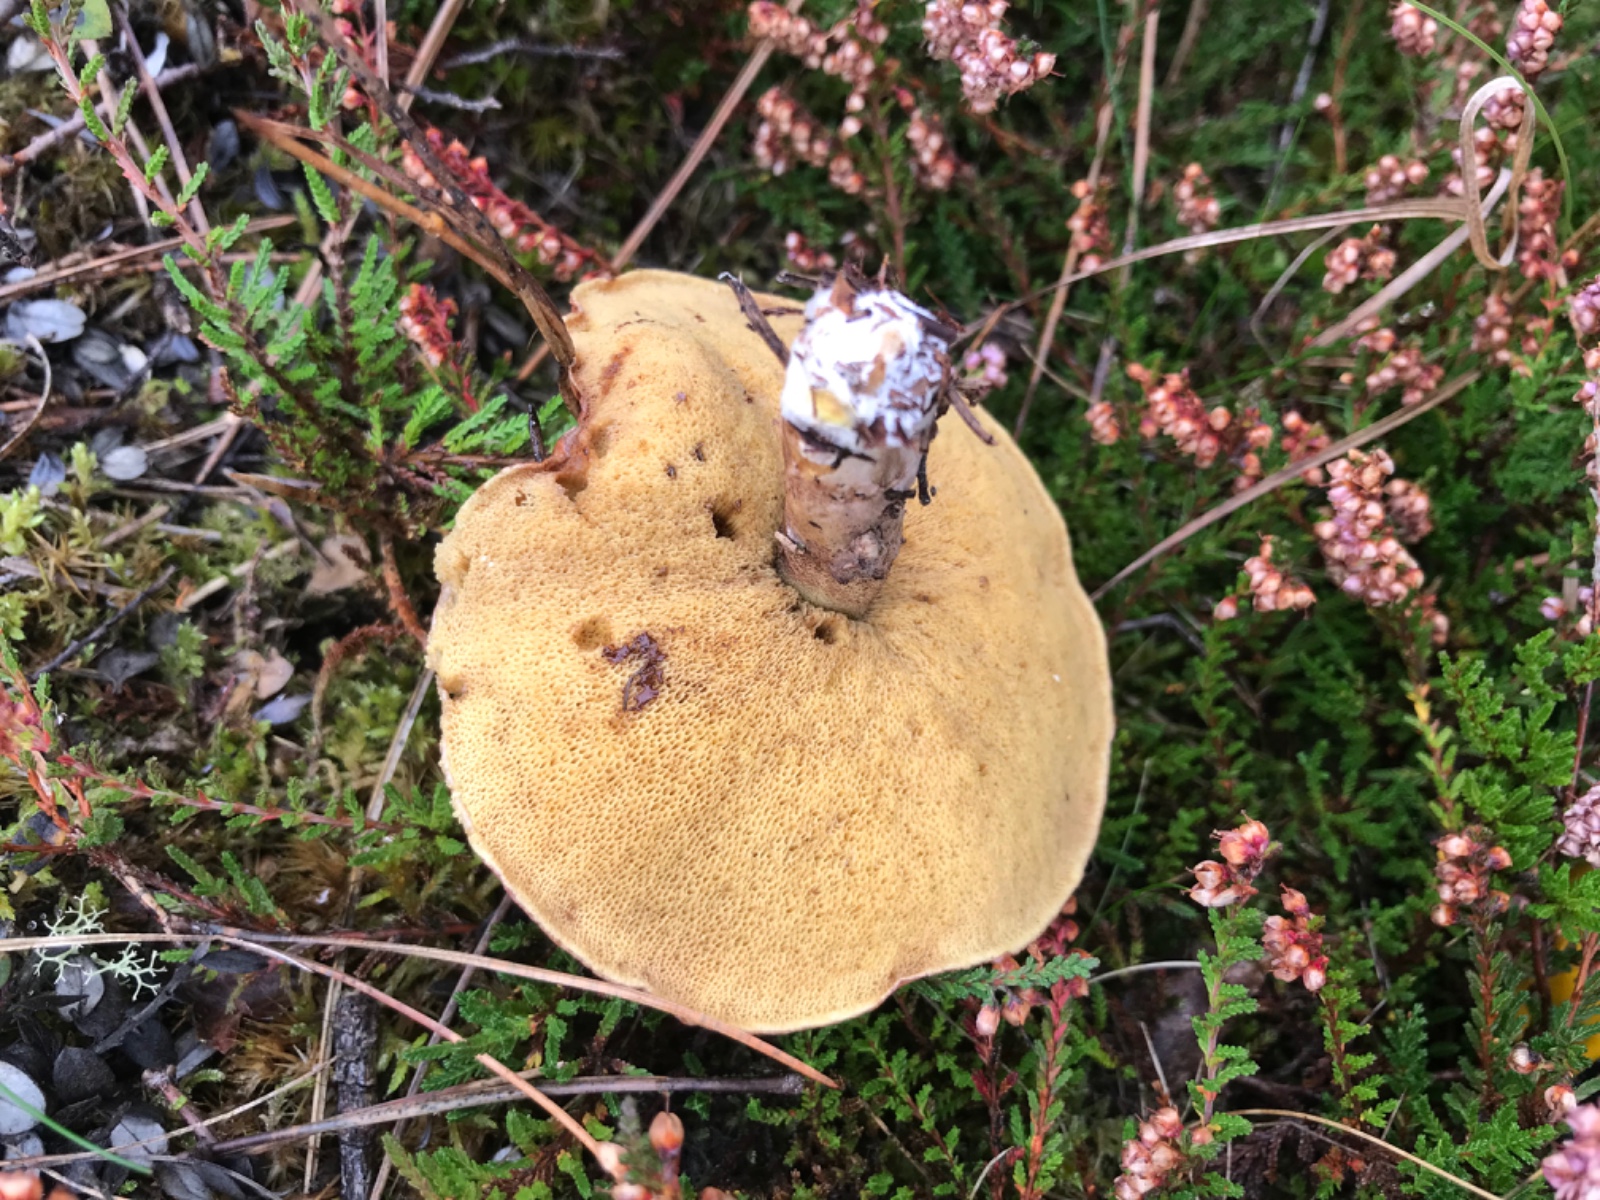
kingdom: Fungi
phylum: Basidiomycota
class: Agaricomycetes
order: Boletales
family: Suillaceae
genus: Suillus
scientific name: Suillus luteus
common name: brungul slimrørhat
